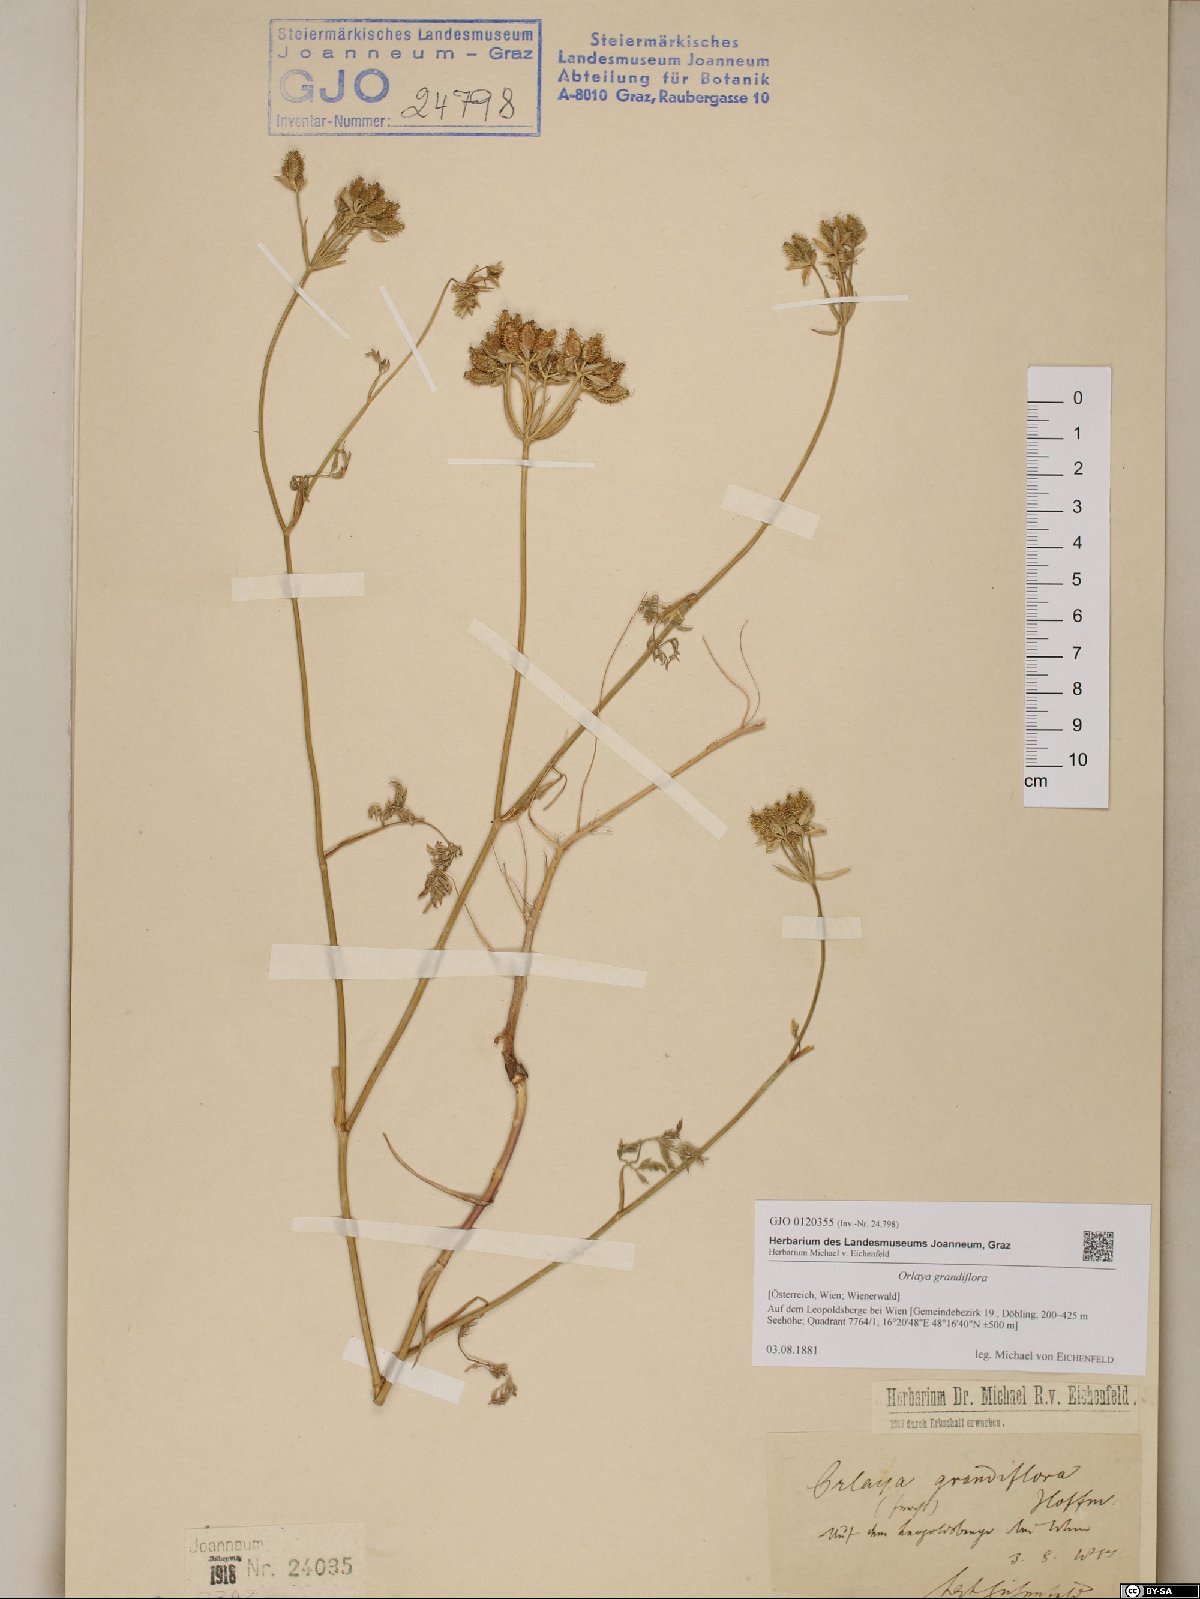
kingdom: Plantae
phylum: Tracheophyta
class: Magnoliopsida
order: Apiales
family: Apiaceae
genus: Orlaya
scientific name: Orlaya grandiflora
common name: White lace flower
